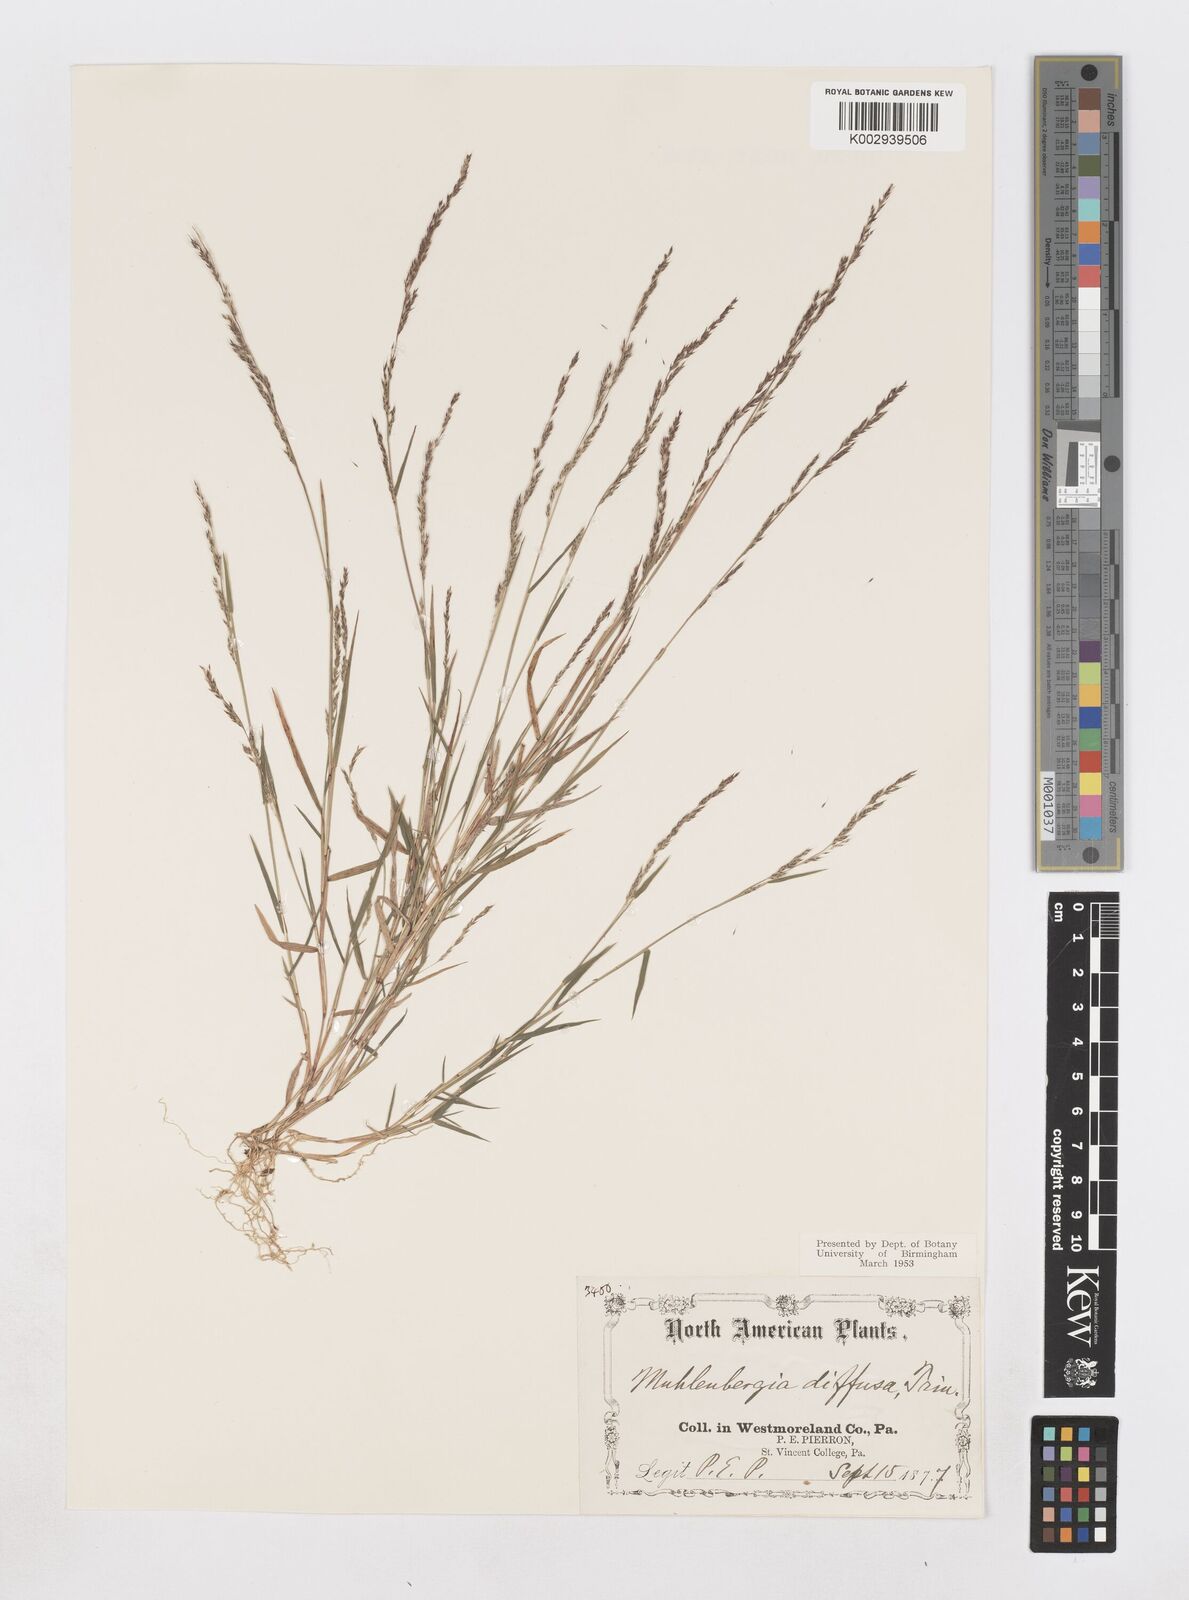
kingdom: Plantae
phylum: Tracheophyta
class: Liliopsida
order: Poales
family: Poaceae
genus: Muhlenbergia
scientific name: Muhlenbergia schreberi
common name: Nimblewill
